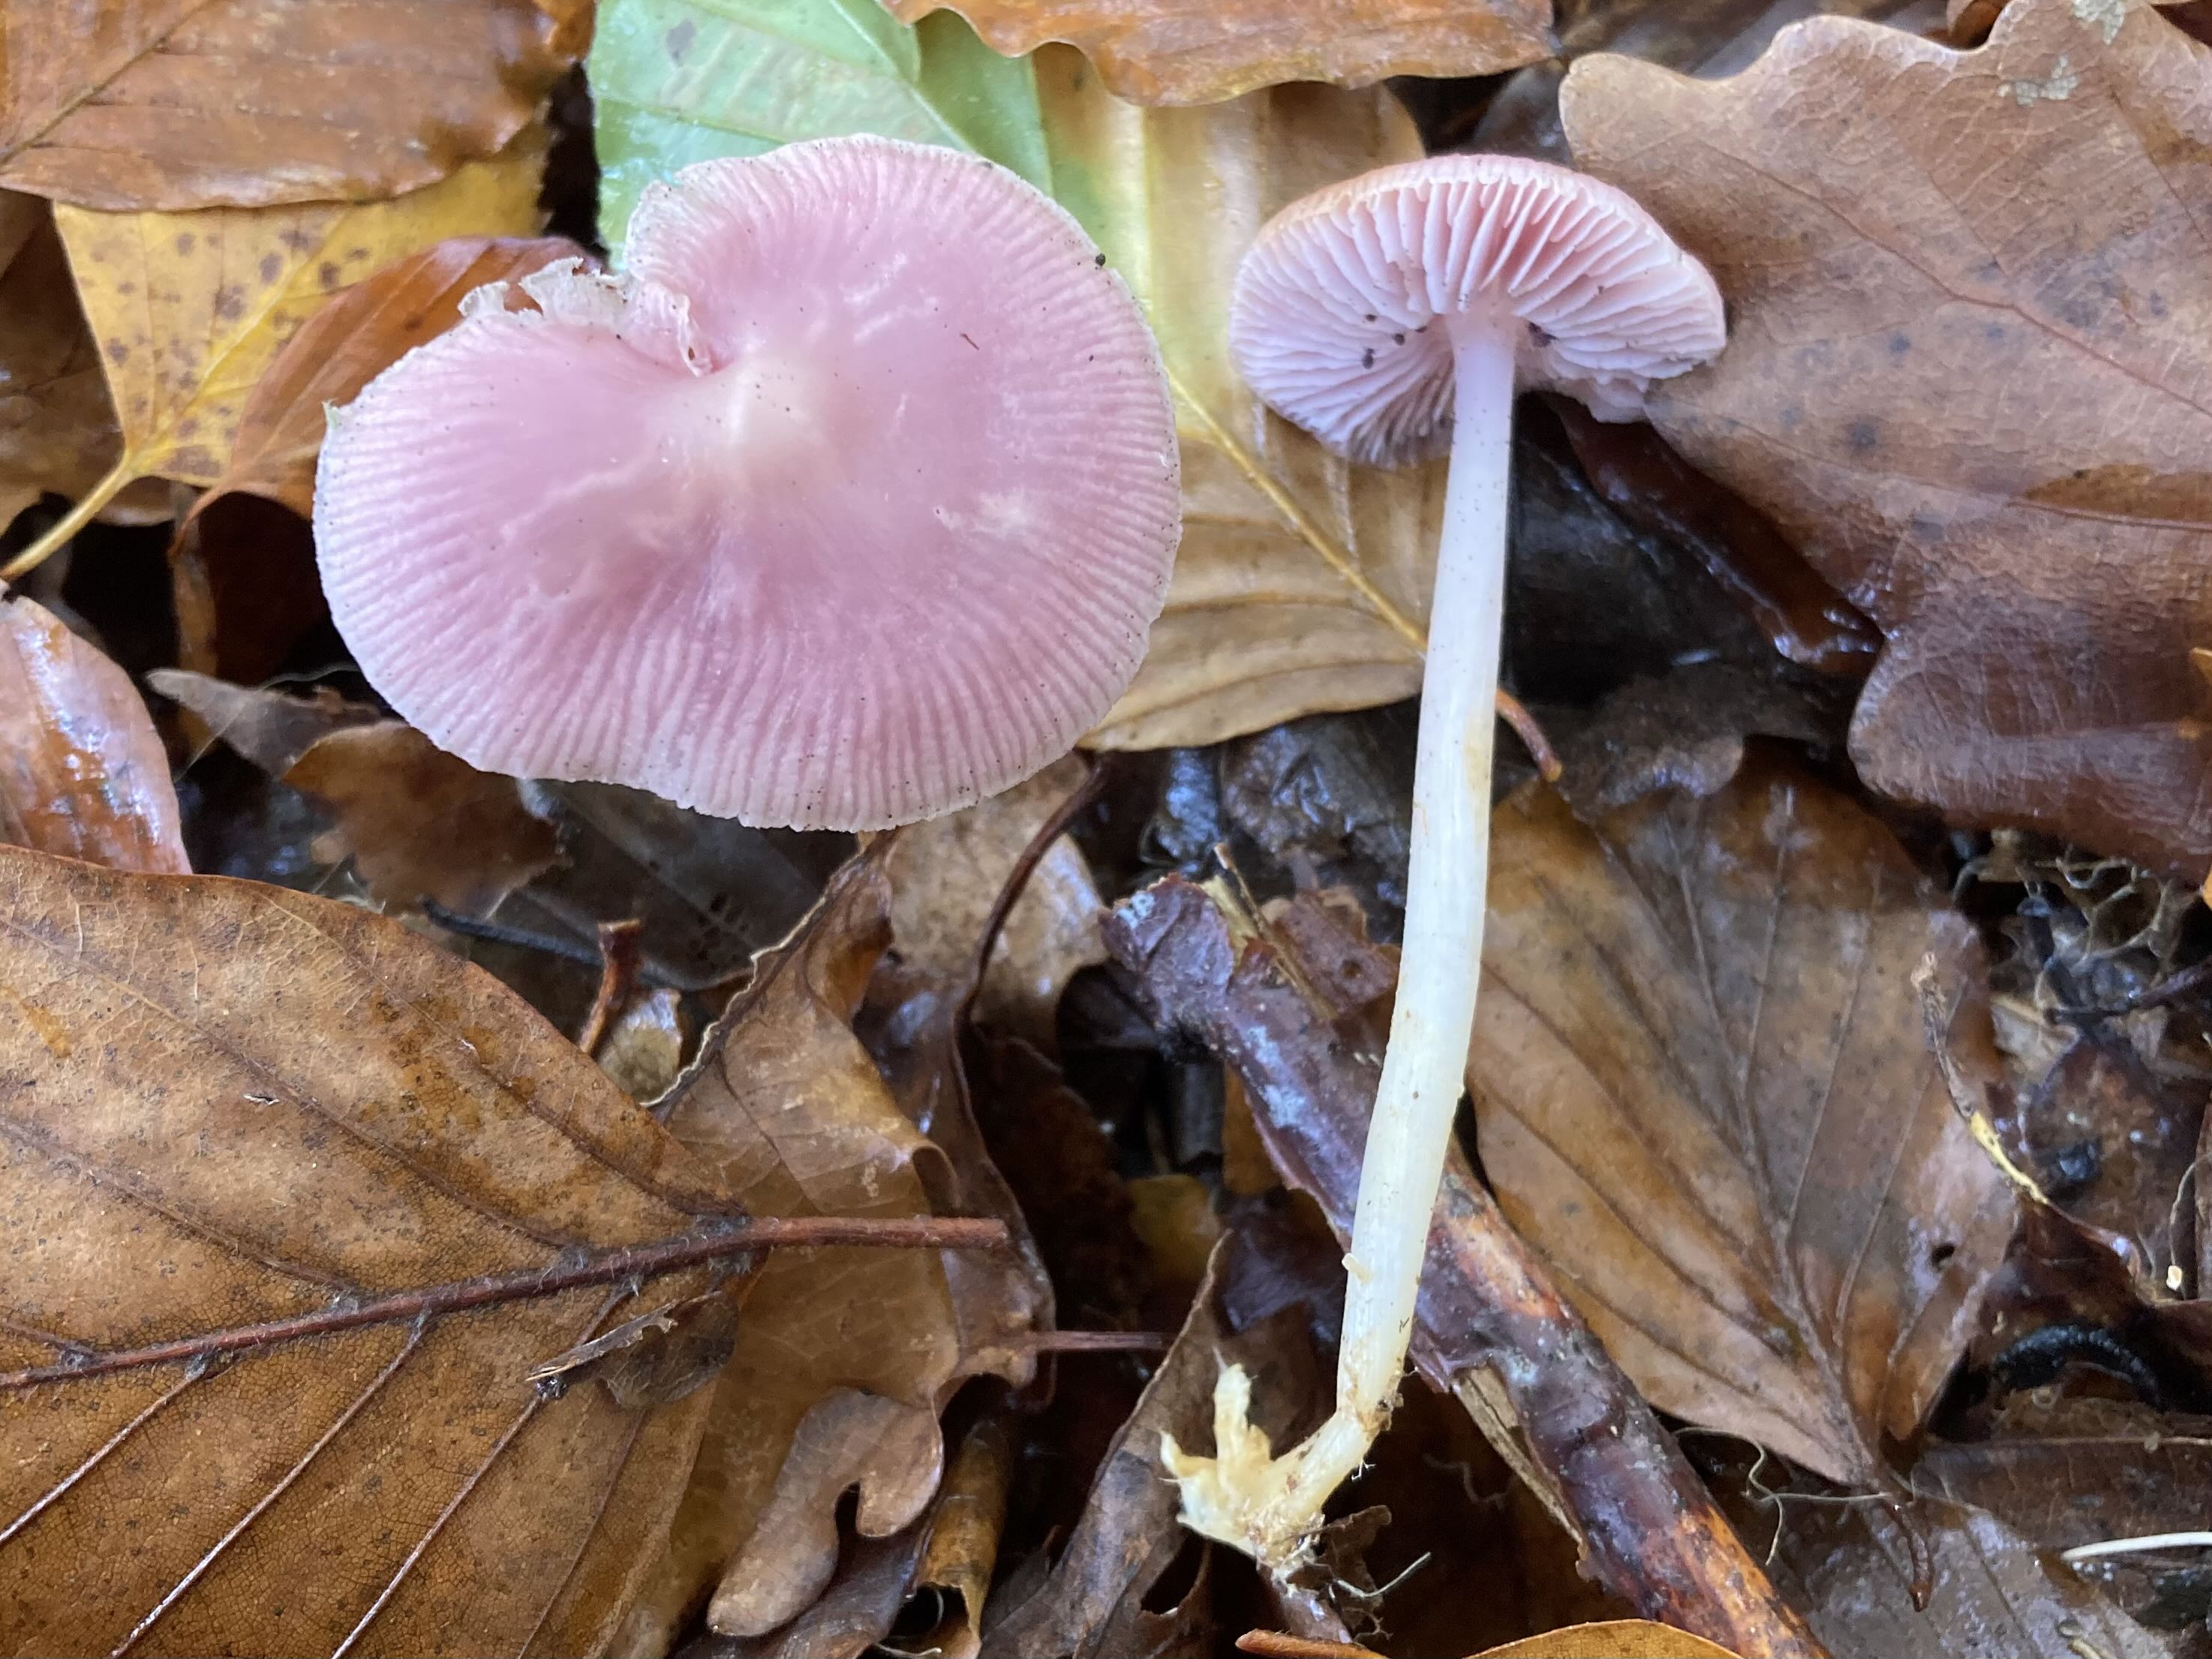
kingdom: Fungi
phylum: Basidiomycota
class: Agaricomycetes
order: Agaricales
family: Mycenaceae
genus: Mycena
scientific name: Mycena rosea
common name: rosa huesvamp
